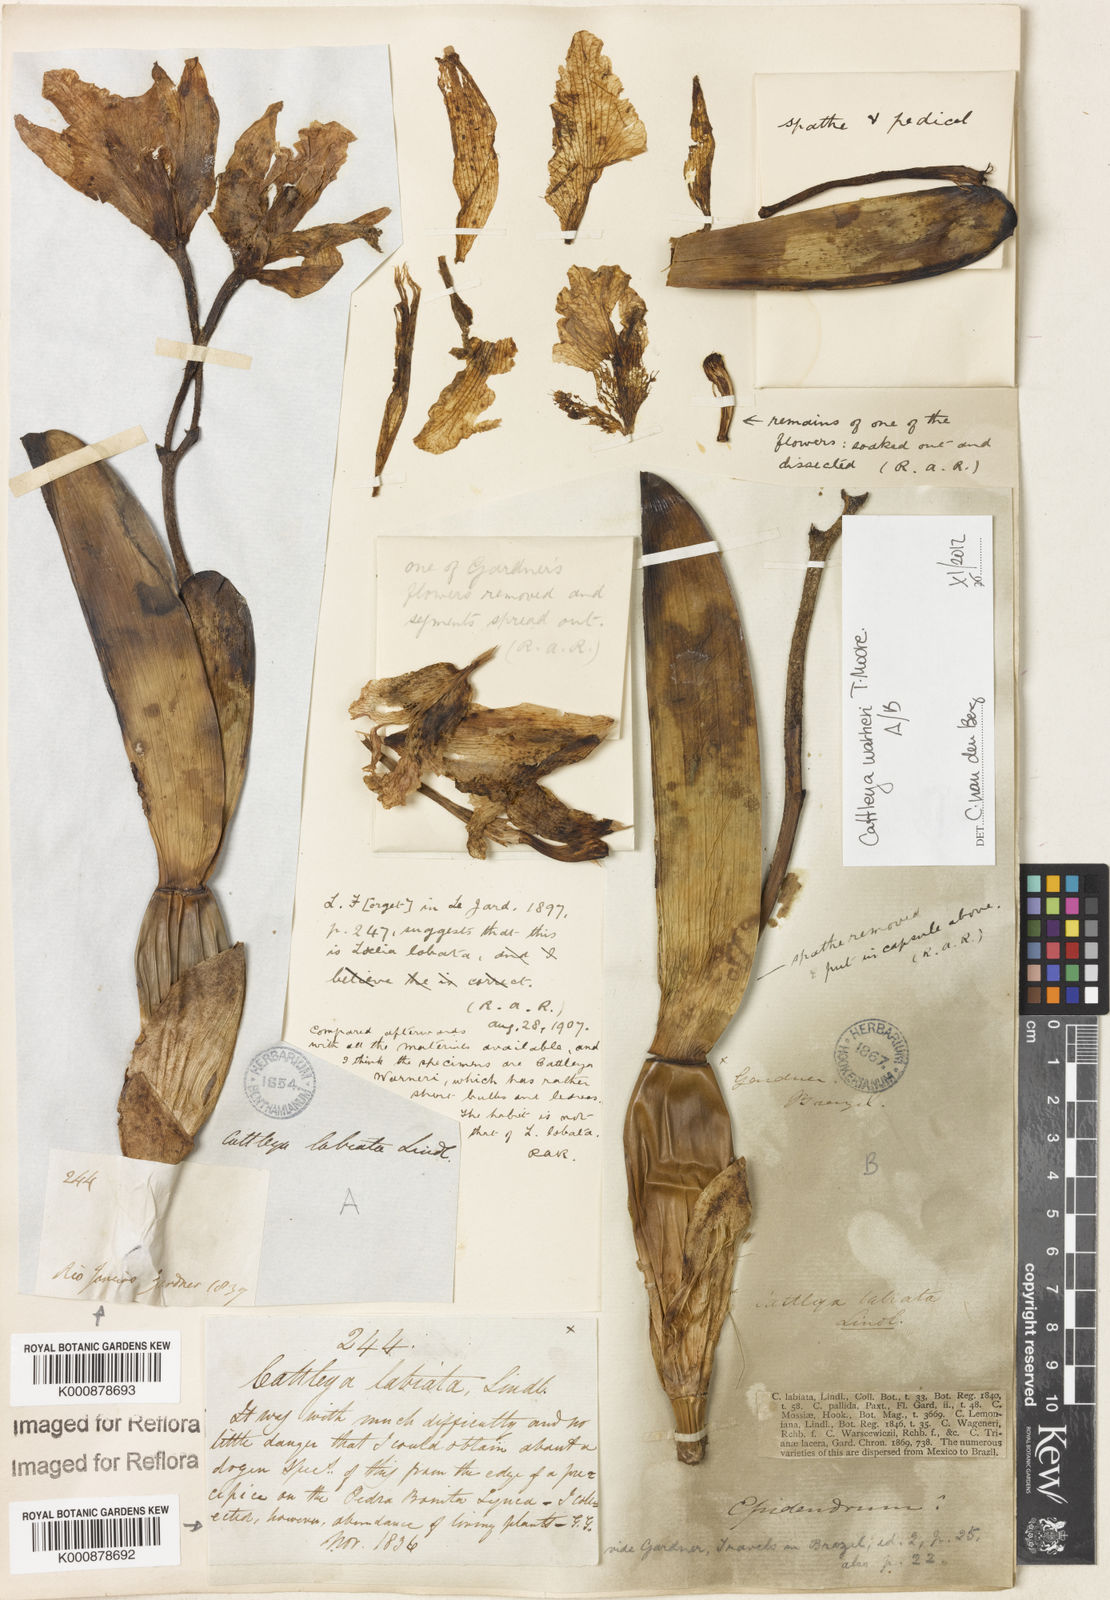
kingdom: Plantae
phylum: Tracheophyta
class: Liliopsida
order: Asparagales
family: Orchidaceae
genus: Cattleya
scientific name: Cattleya
